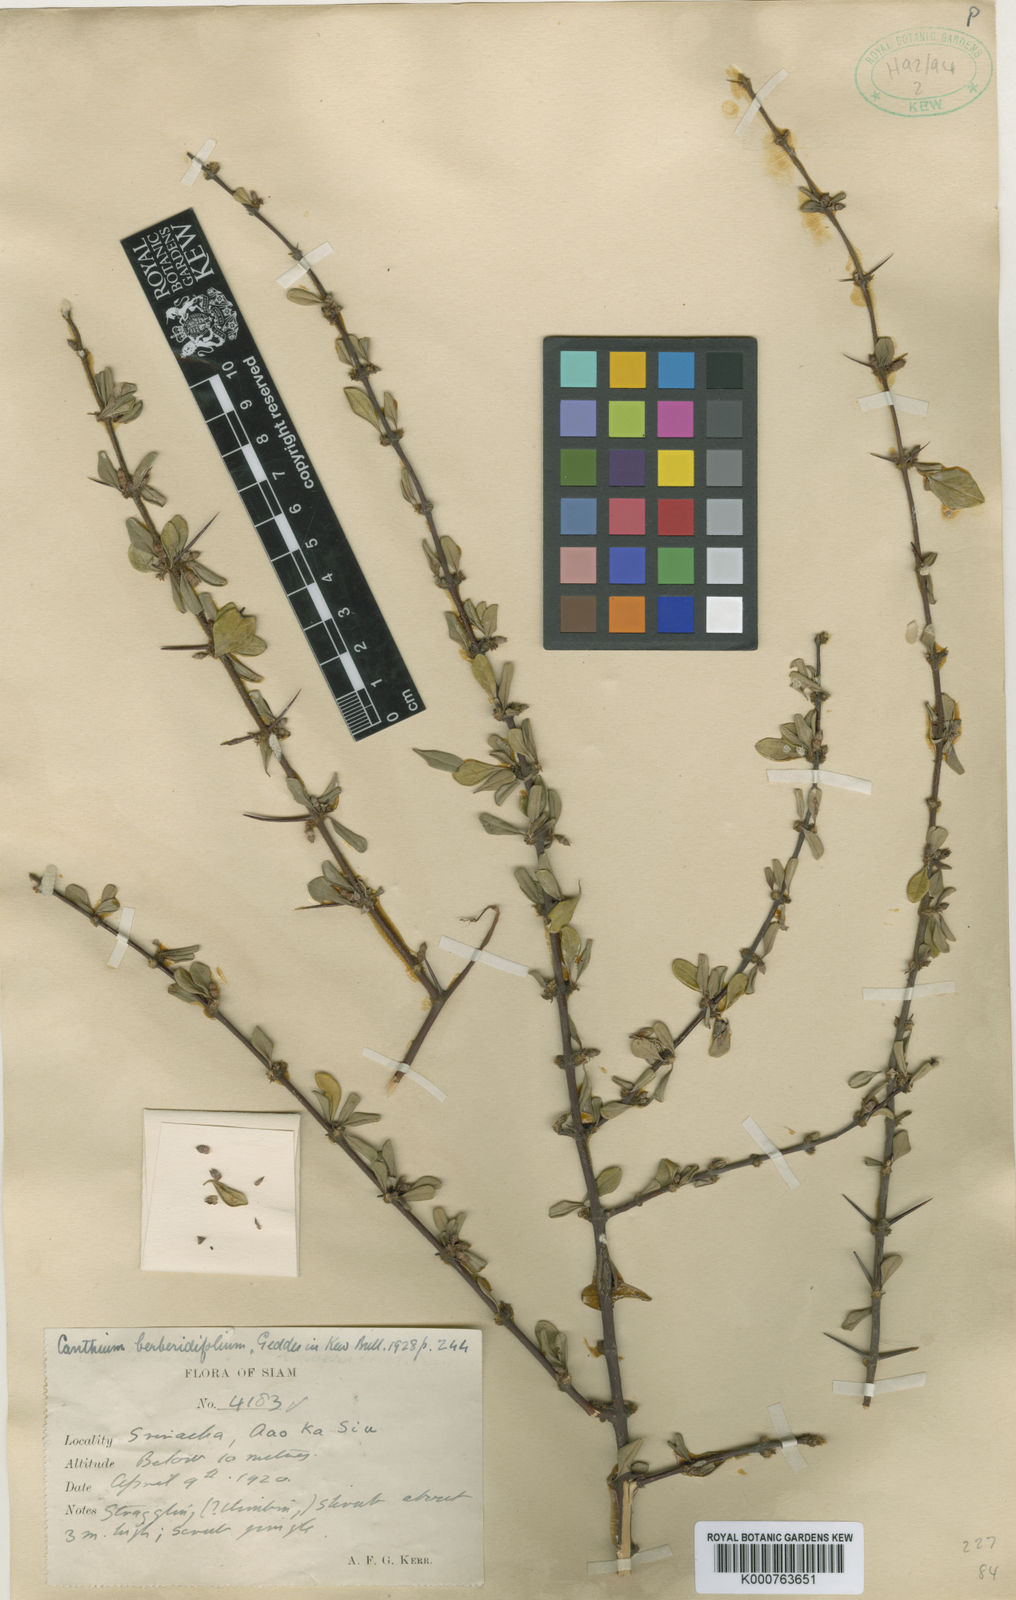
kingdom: Plantae
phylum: Tracheophyta
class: Magnoliopsida
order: Gentianales
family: Rubiaceae
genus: Canthium
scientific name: Canthium berberidifolium
